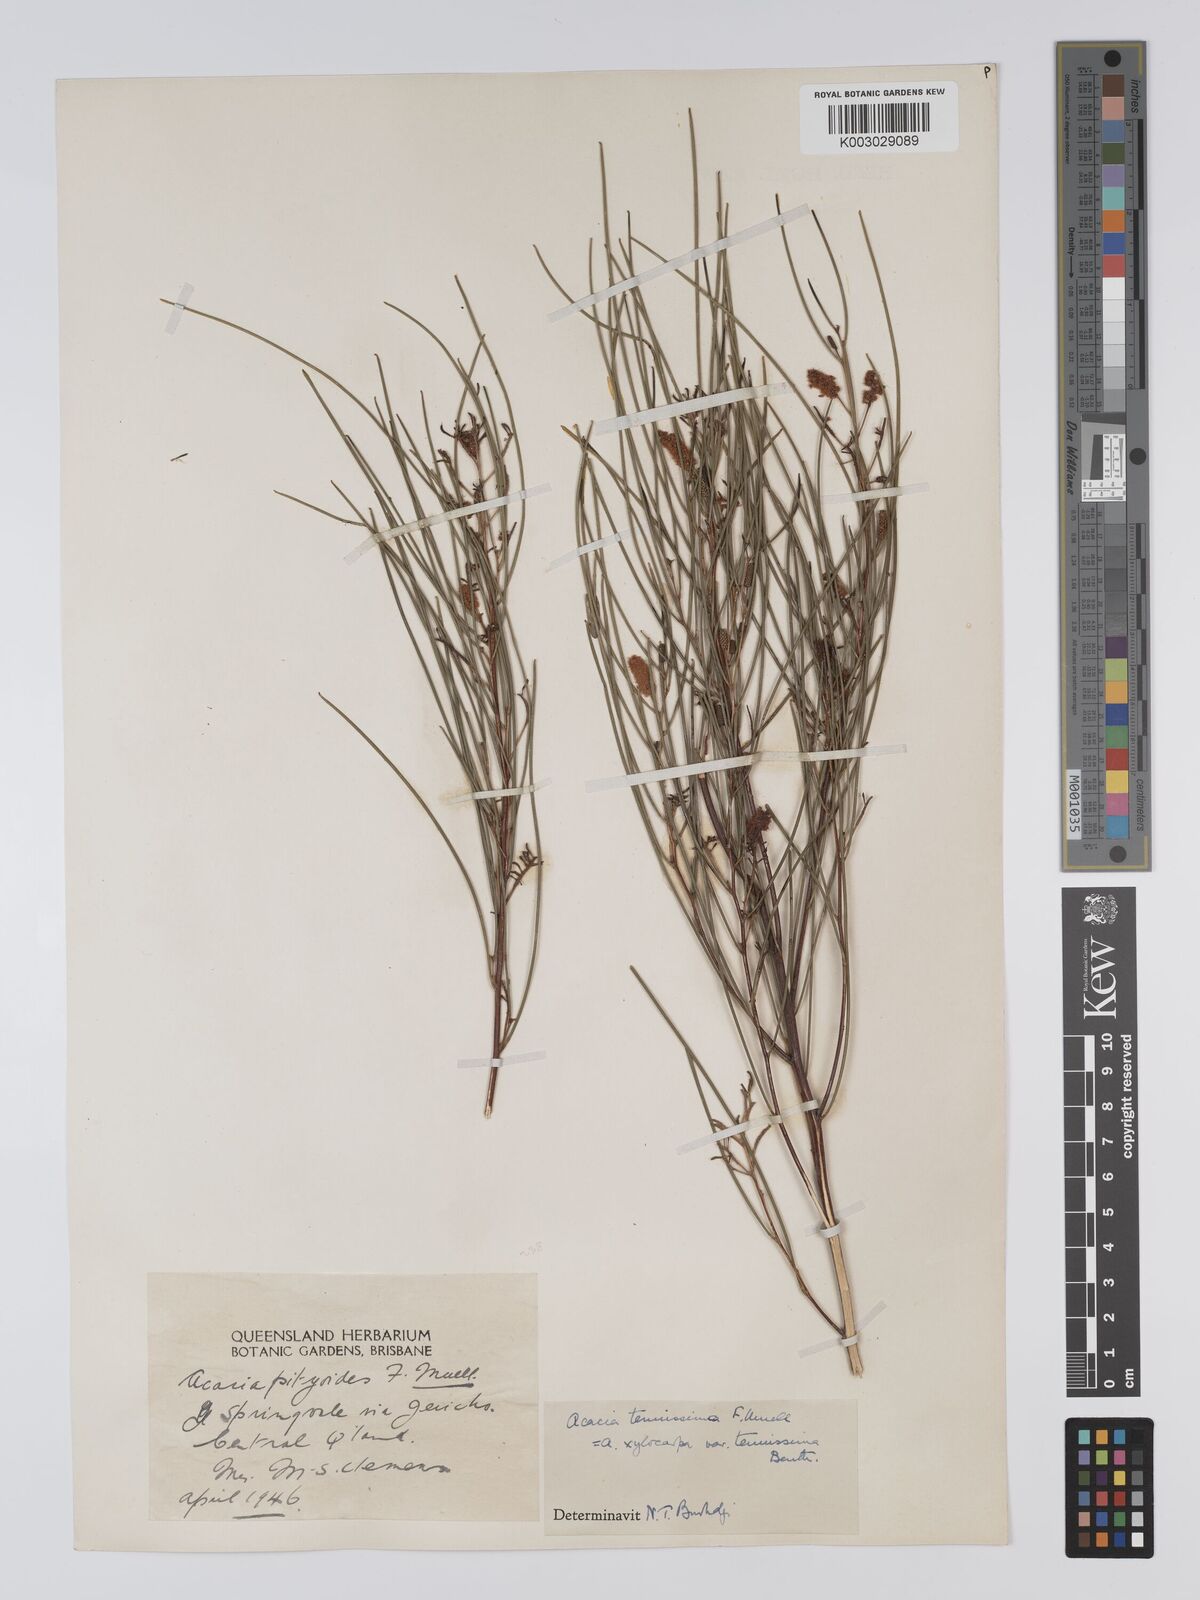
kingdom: Plantae
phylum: Tracheophyta
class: Magnoliopsida
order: Fabales
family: Fabaceae
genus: Acacia
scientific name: Acacia tenuissima
